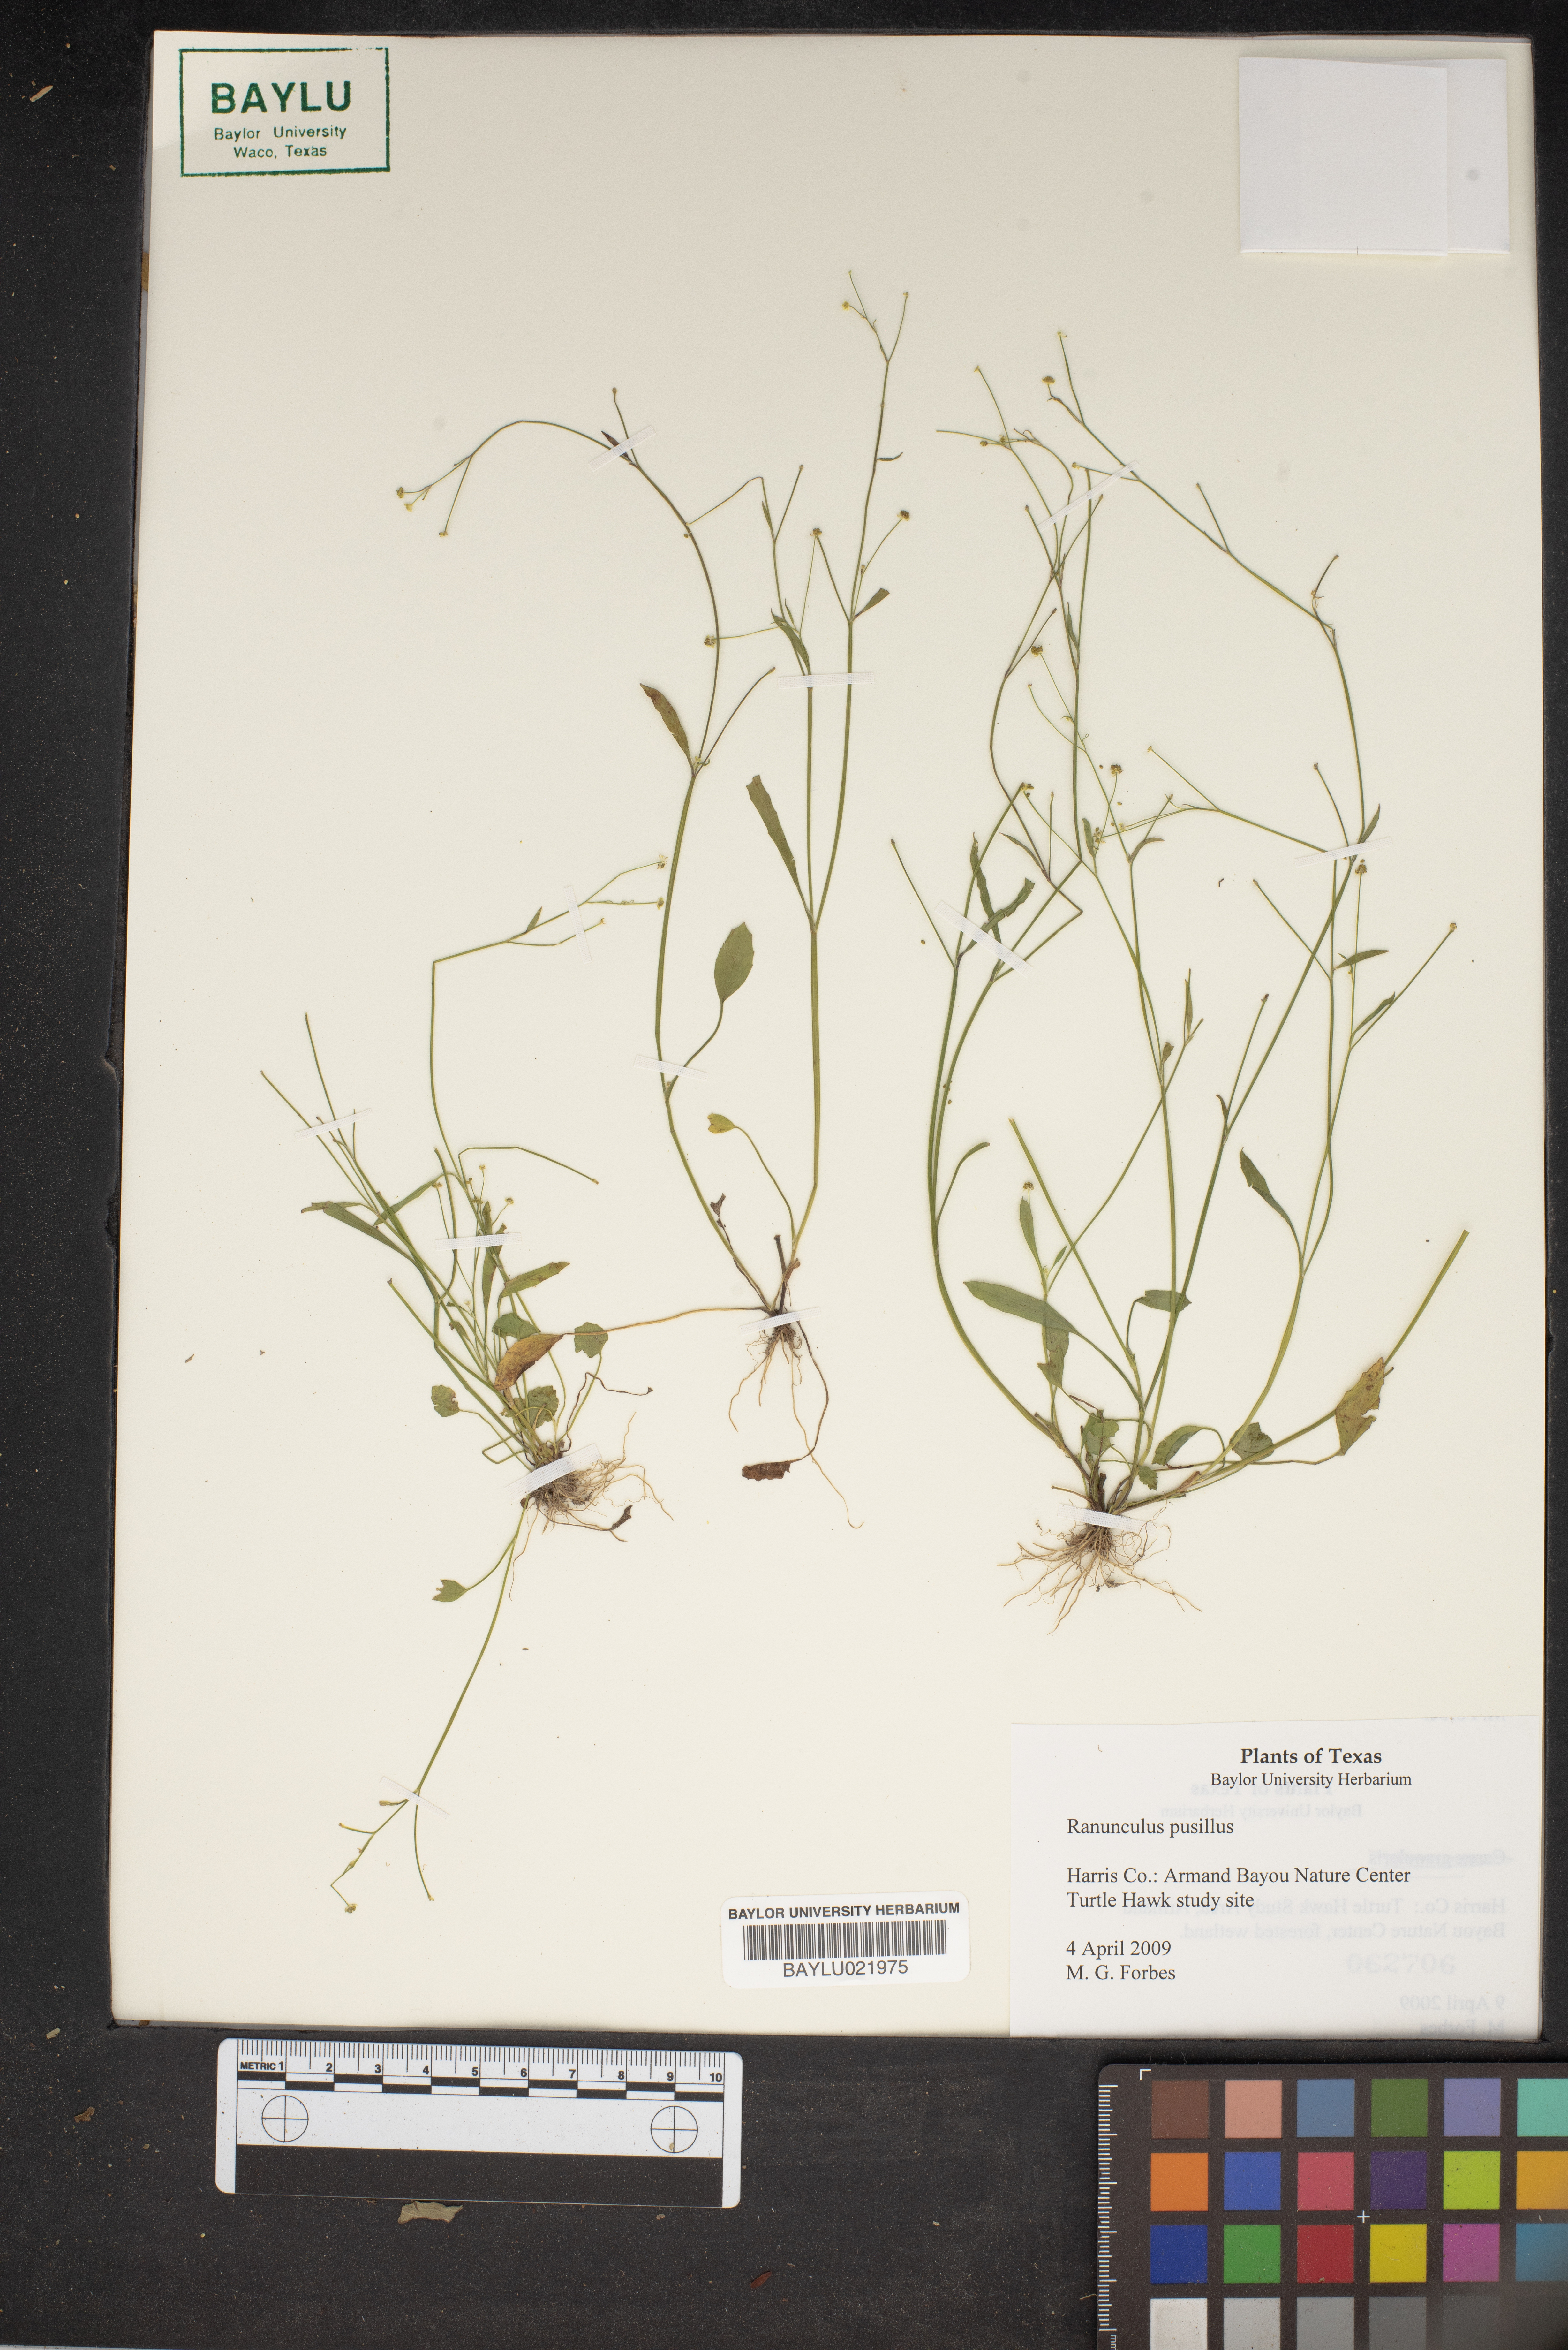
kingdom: Plantae
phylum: Tracheophyta
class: Magnoliopsida
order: Ranunculales
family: Ranunculaceae
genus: Ranunculus
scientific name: Ranunculus pusillus
